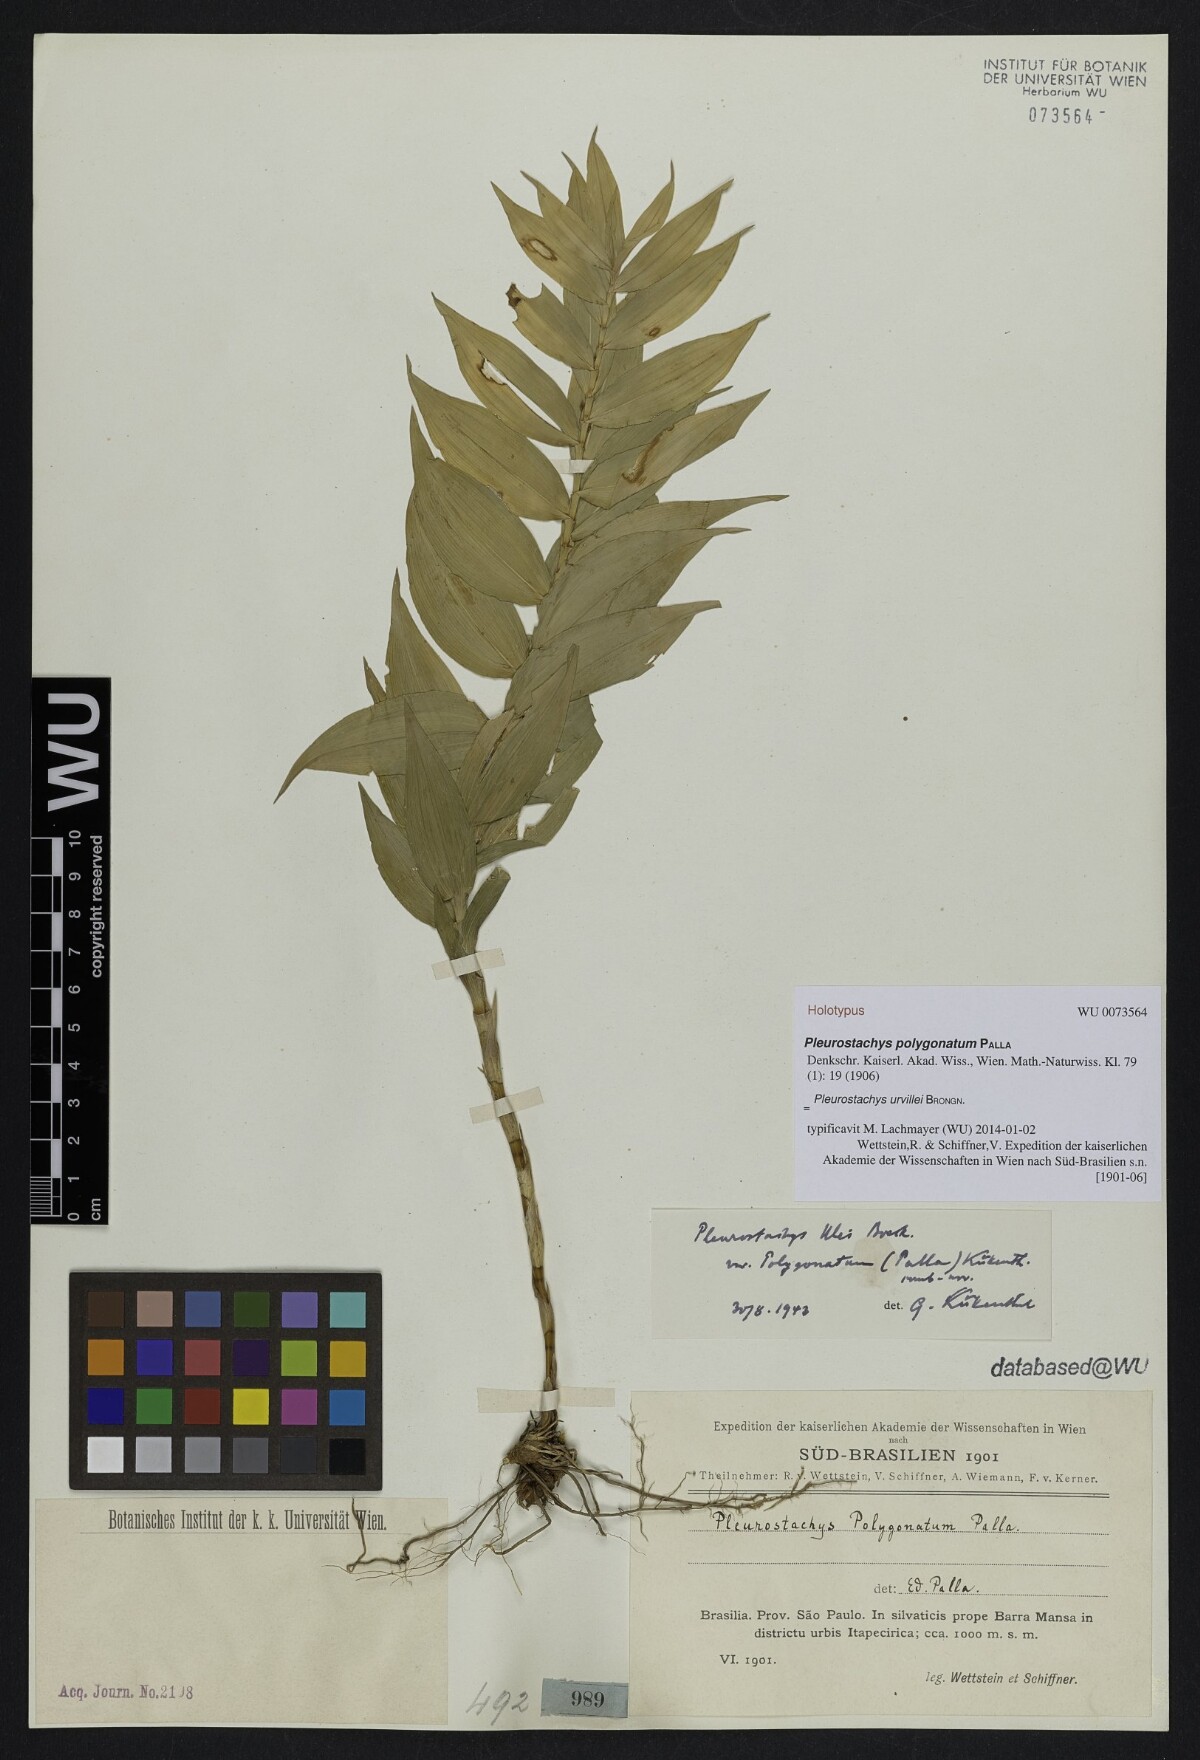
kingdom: Plantae
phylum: Tracheophyta
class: Liliopsida
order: Poales
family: Cyperaceae
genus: Rhynchospora
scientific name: Rhynchospora Pleurostachys ulei
